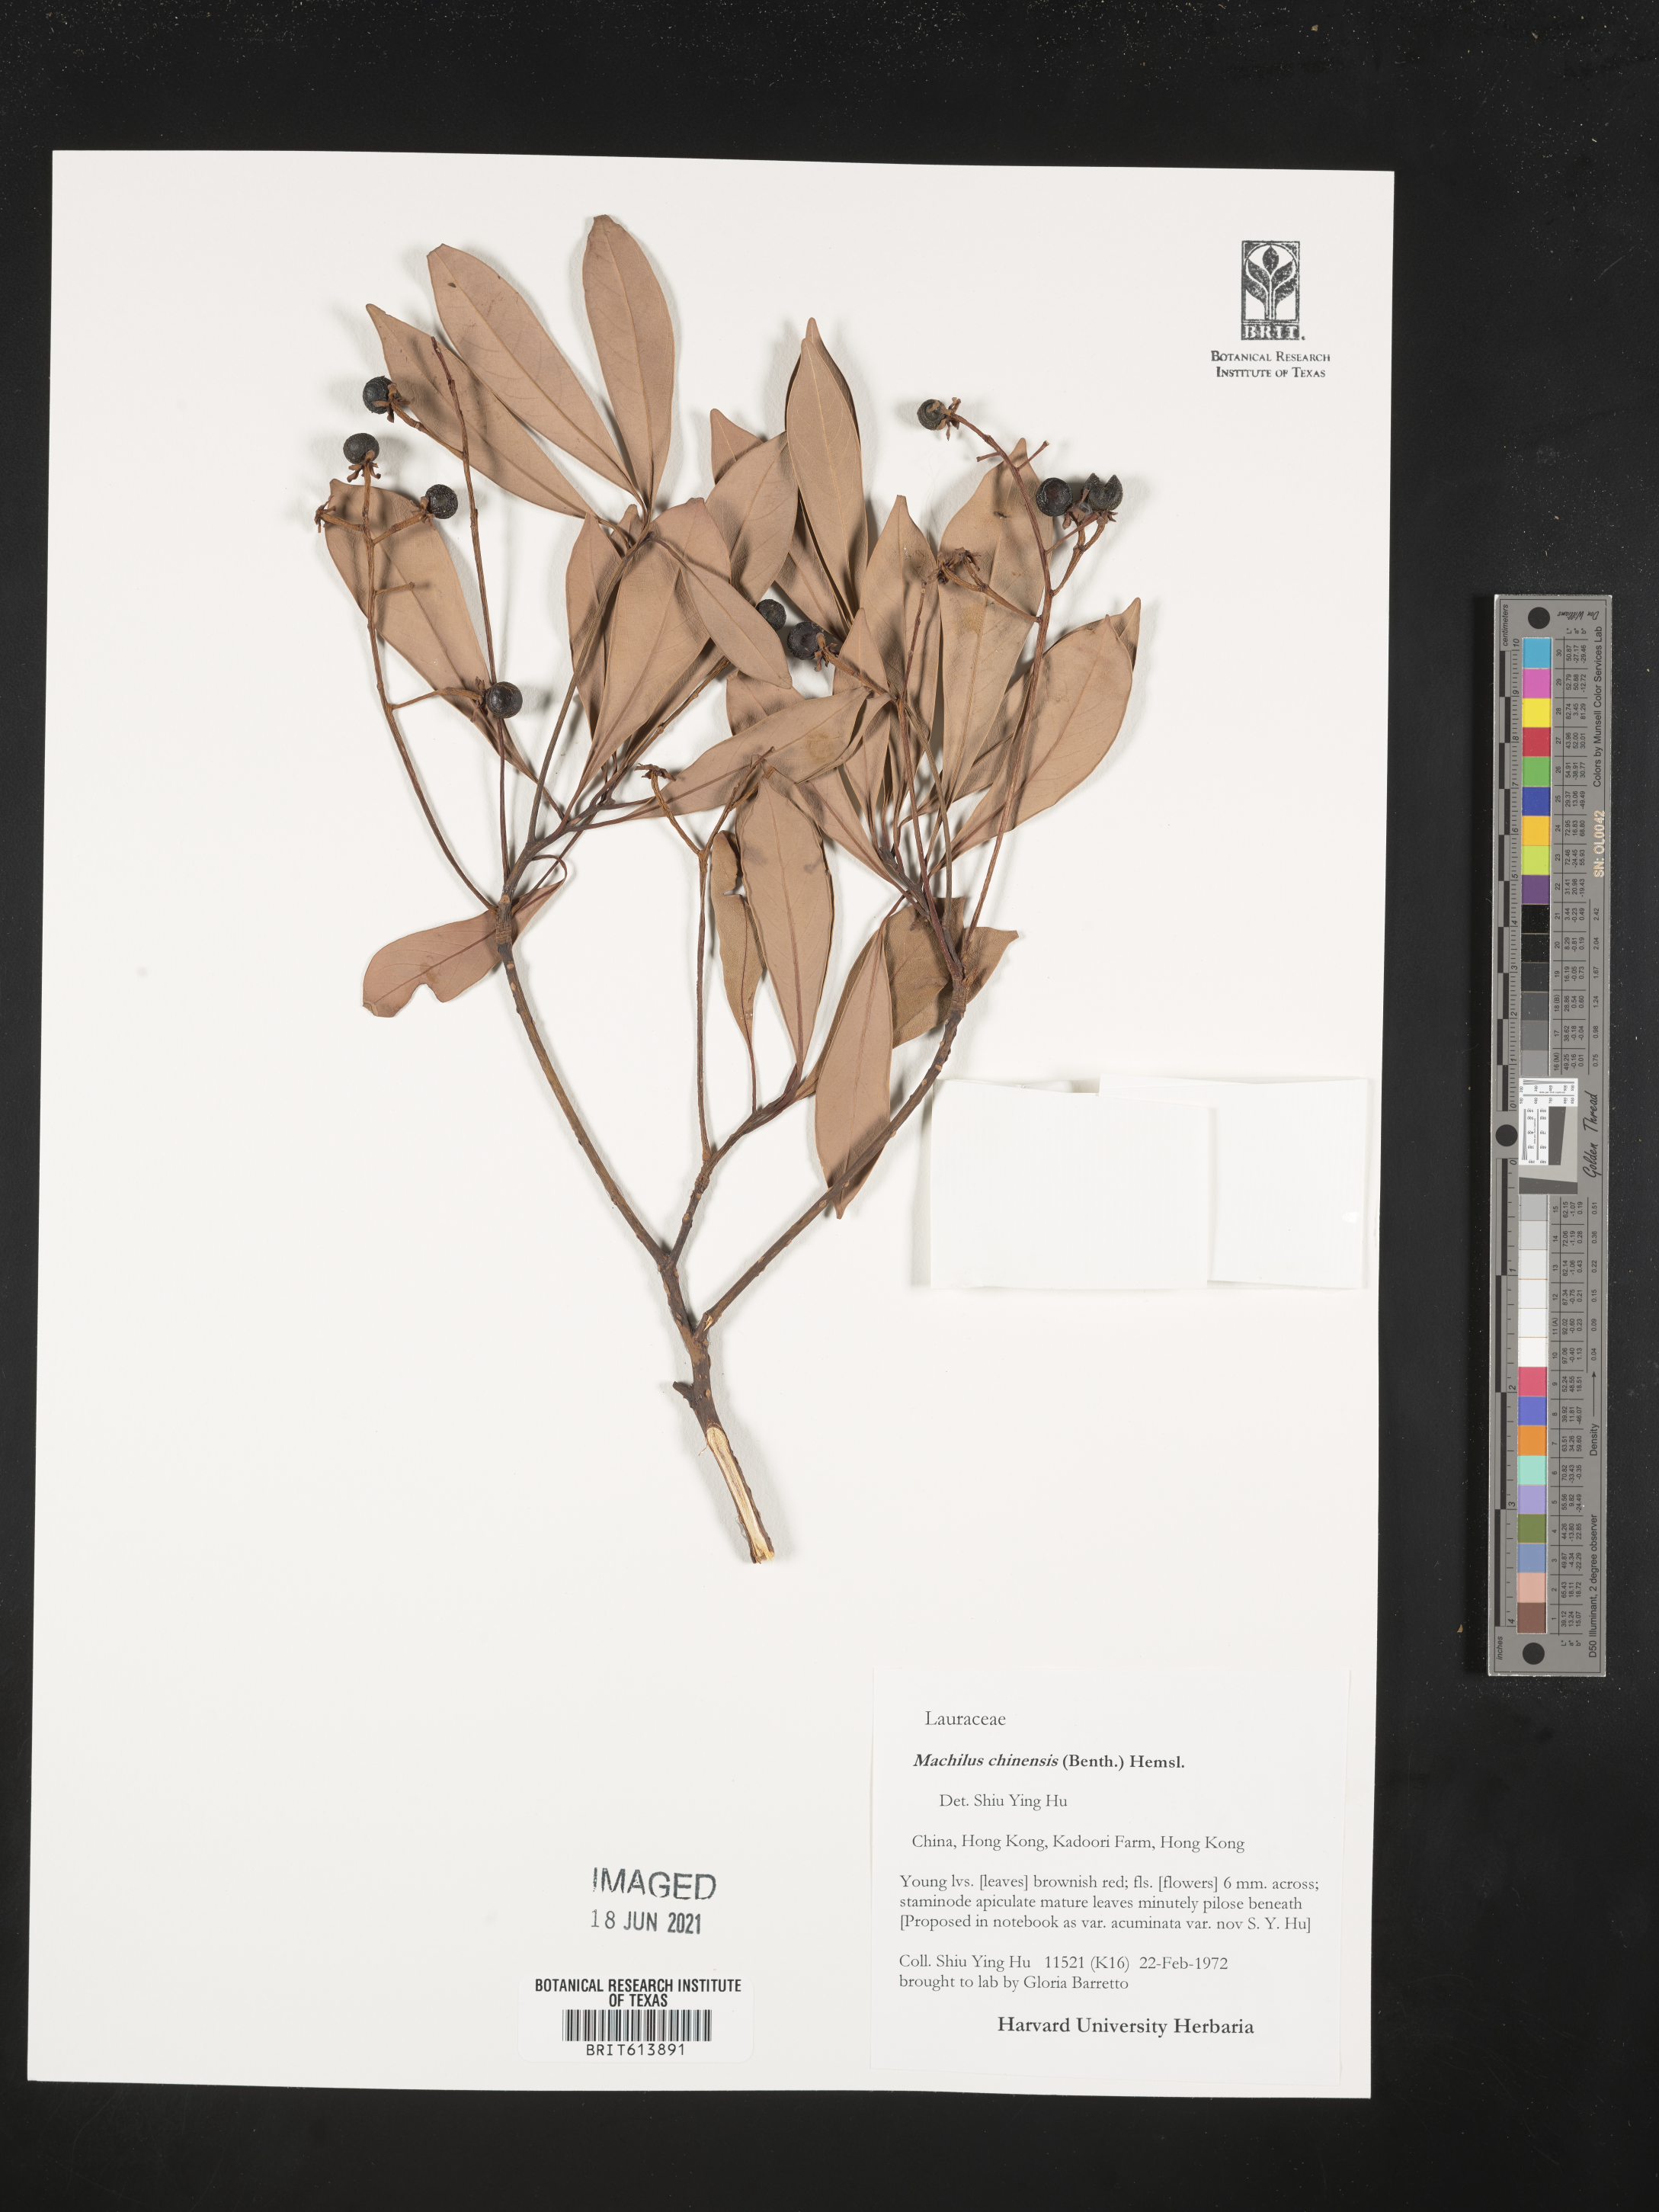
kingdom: Plantae
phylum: Tracheophyta
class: Magnoliopsida
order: Laurales
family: Lauraceae
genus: Machilus
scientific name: Machilus chinensis
